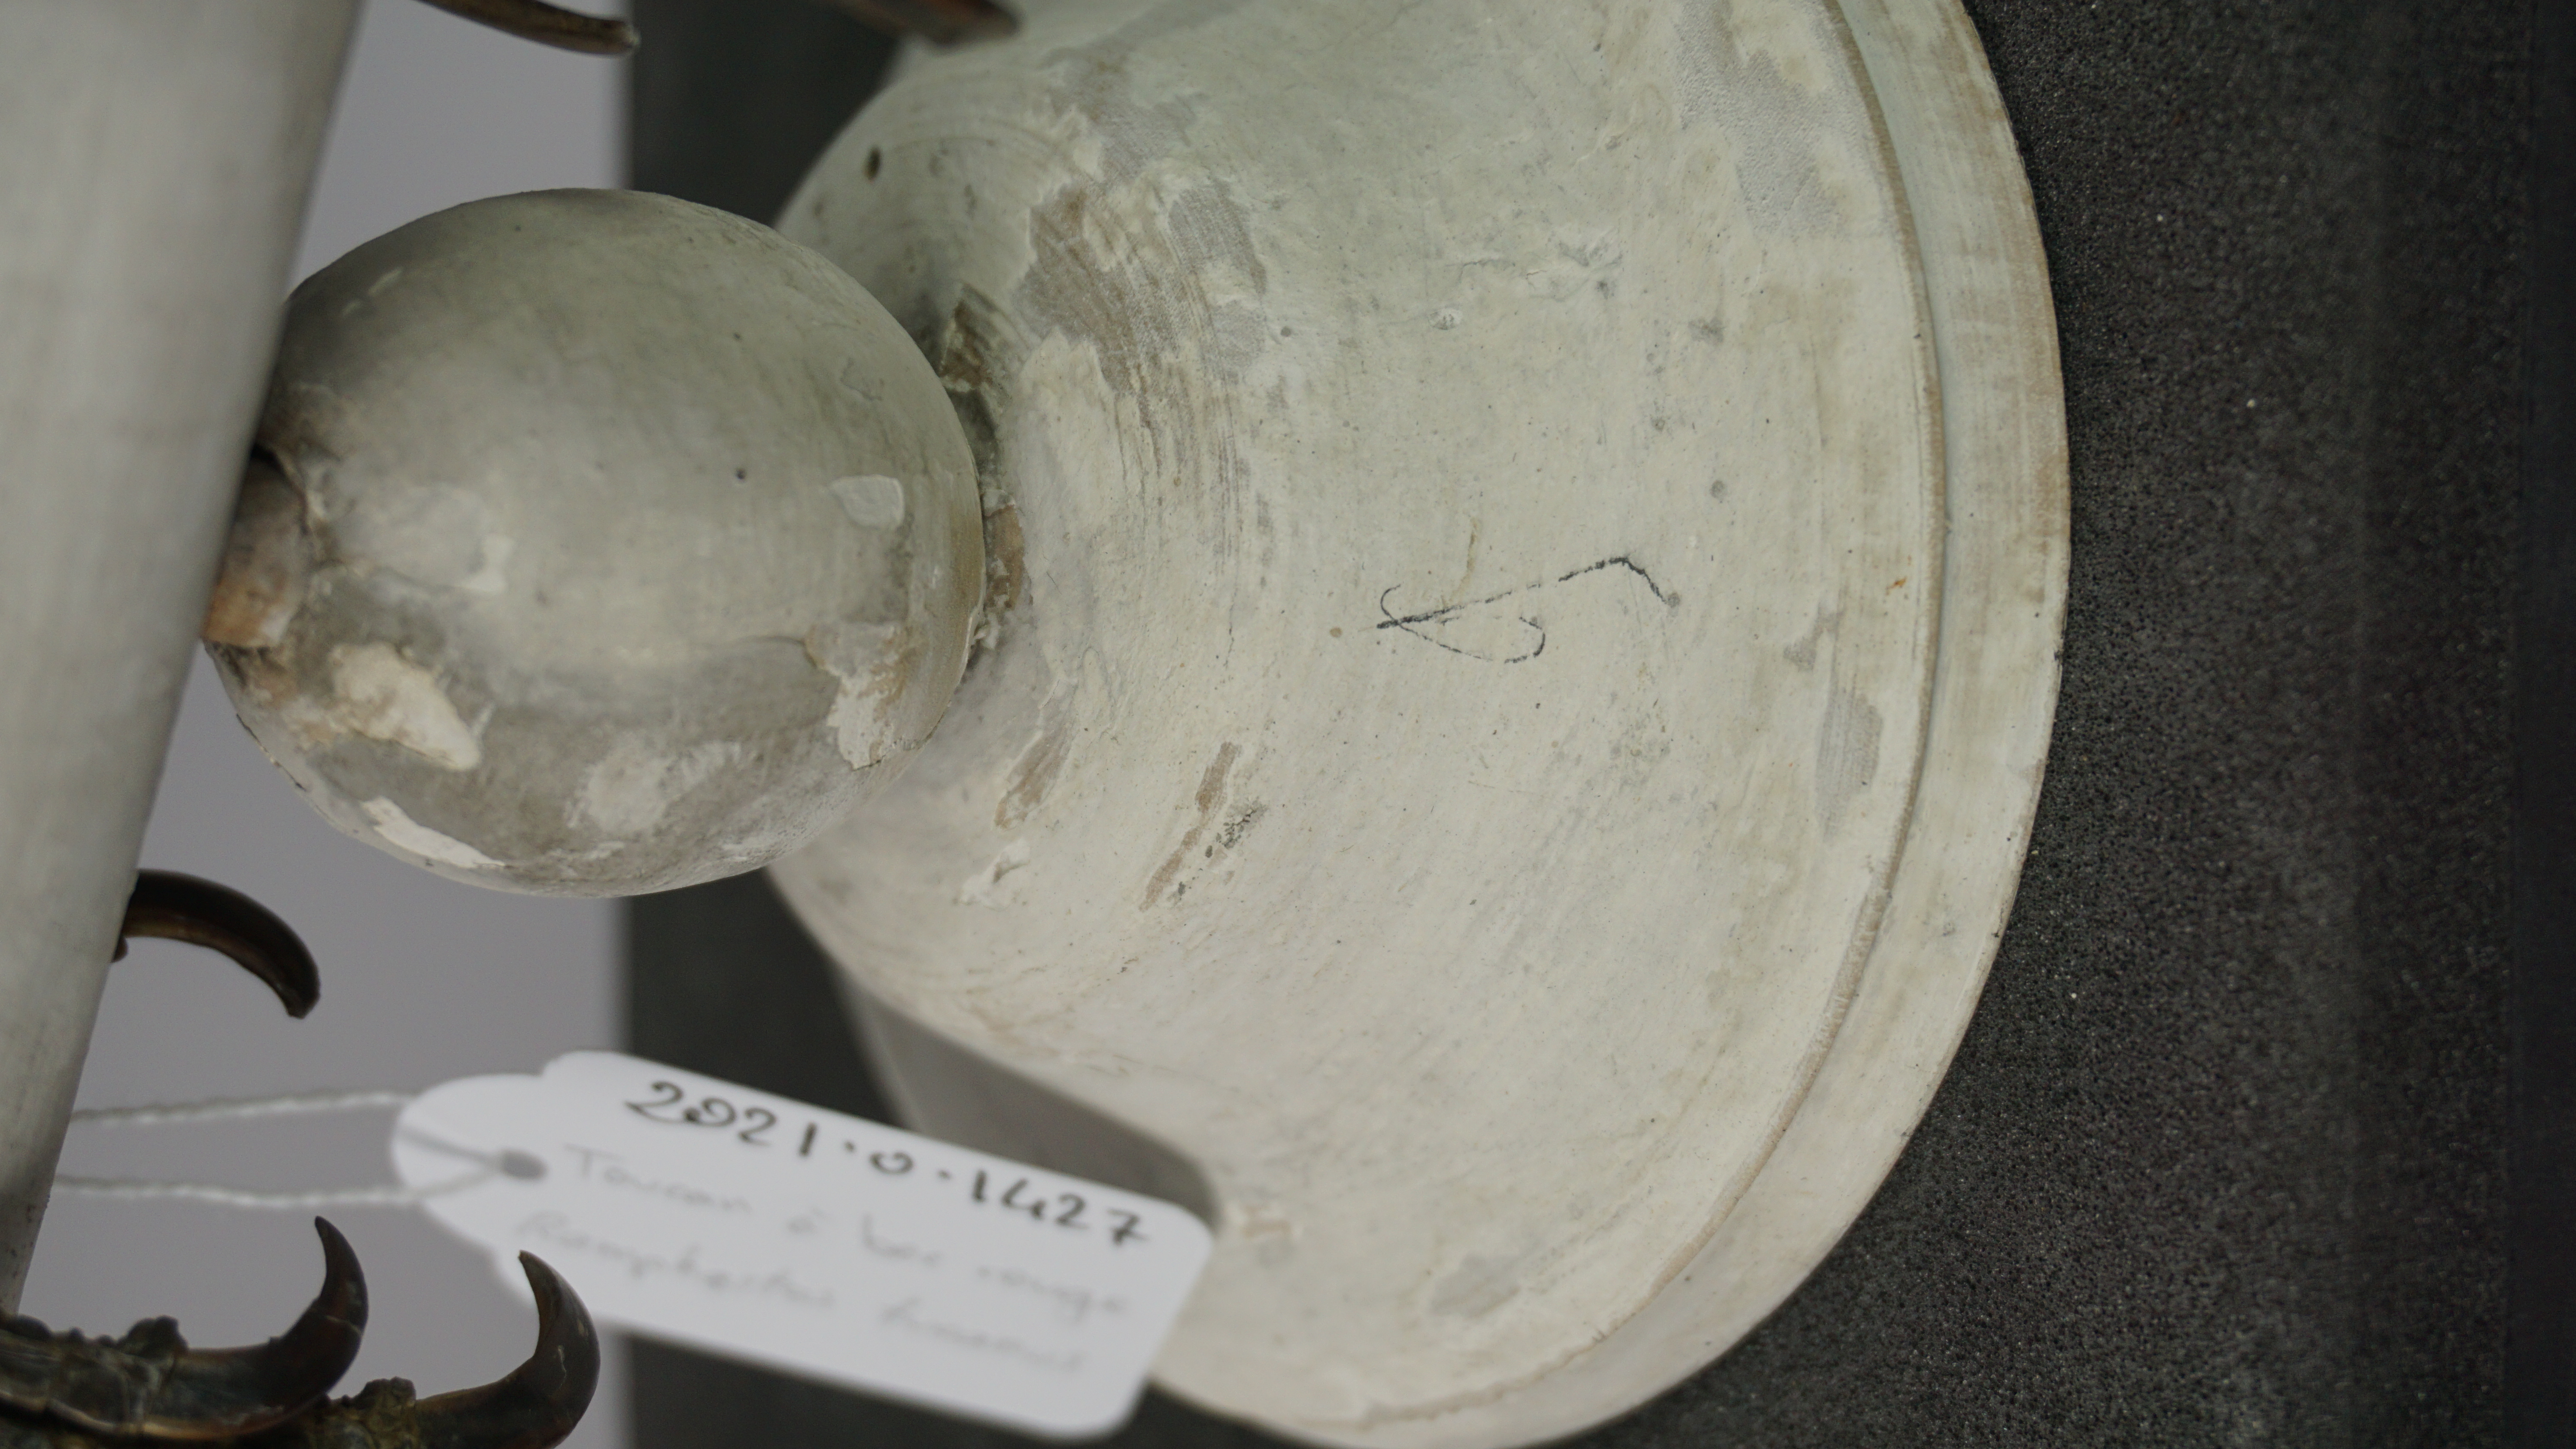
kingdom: Animalia
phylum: Chordata
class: Aves
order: Piciformes
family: Ramphastidae
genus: Ramphastos
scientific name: Ramphastos tucanus
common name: White-throated toucan
